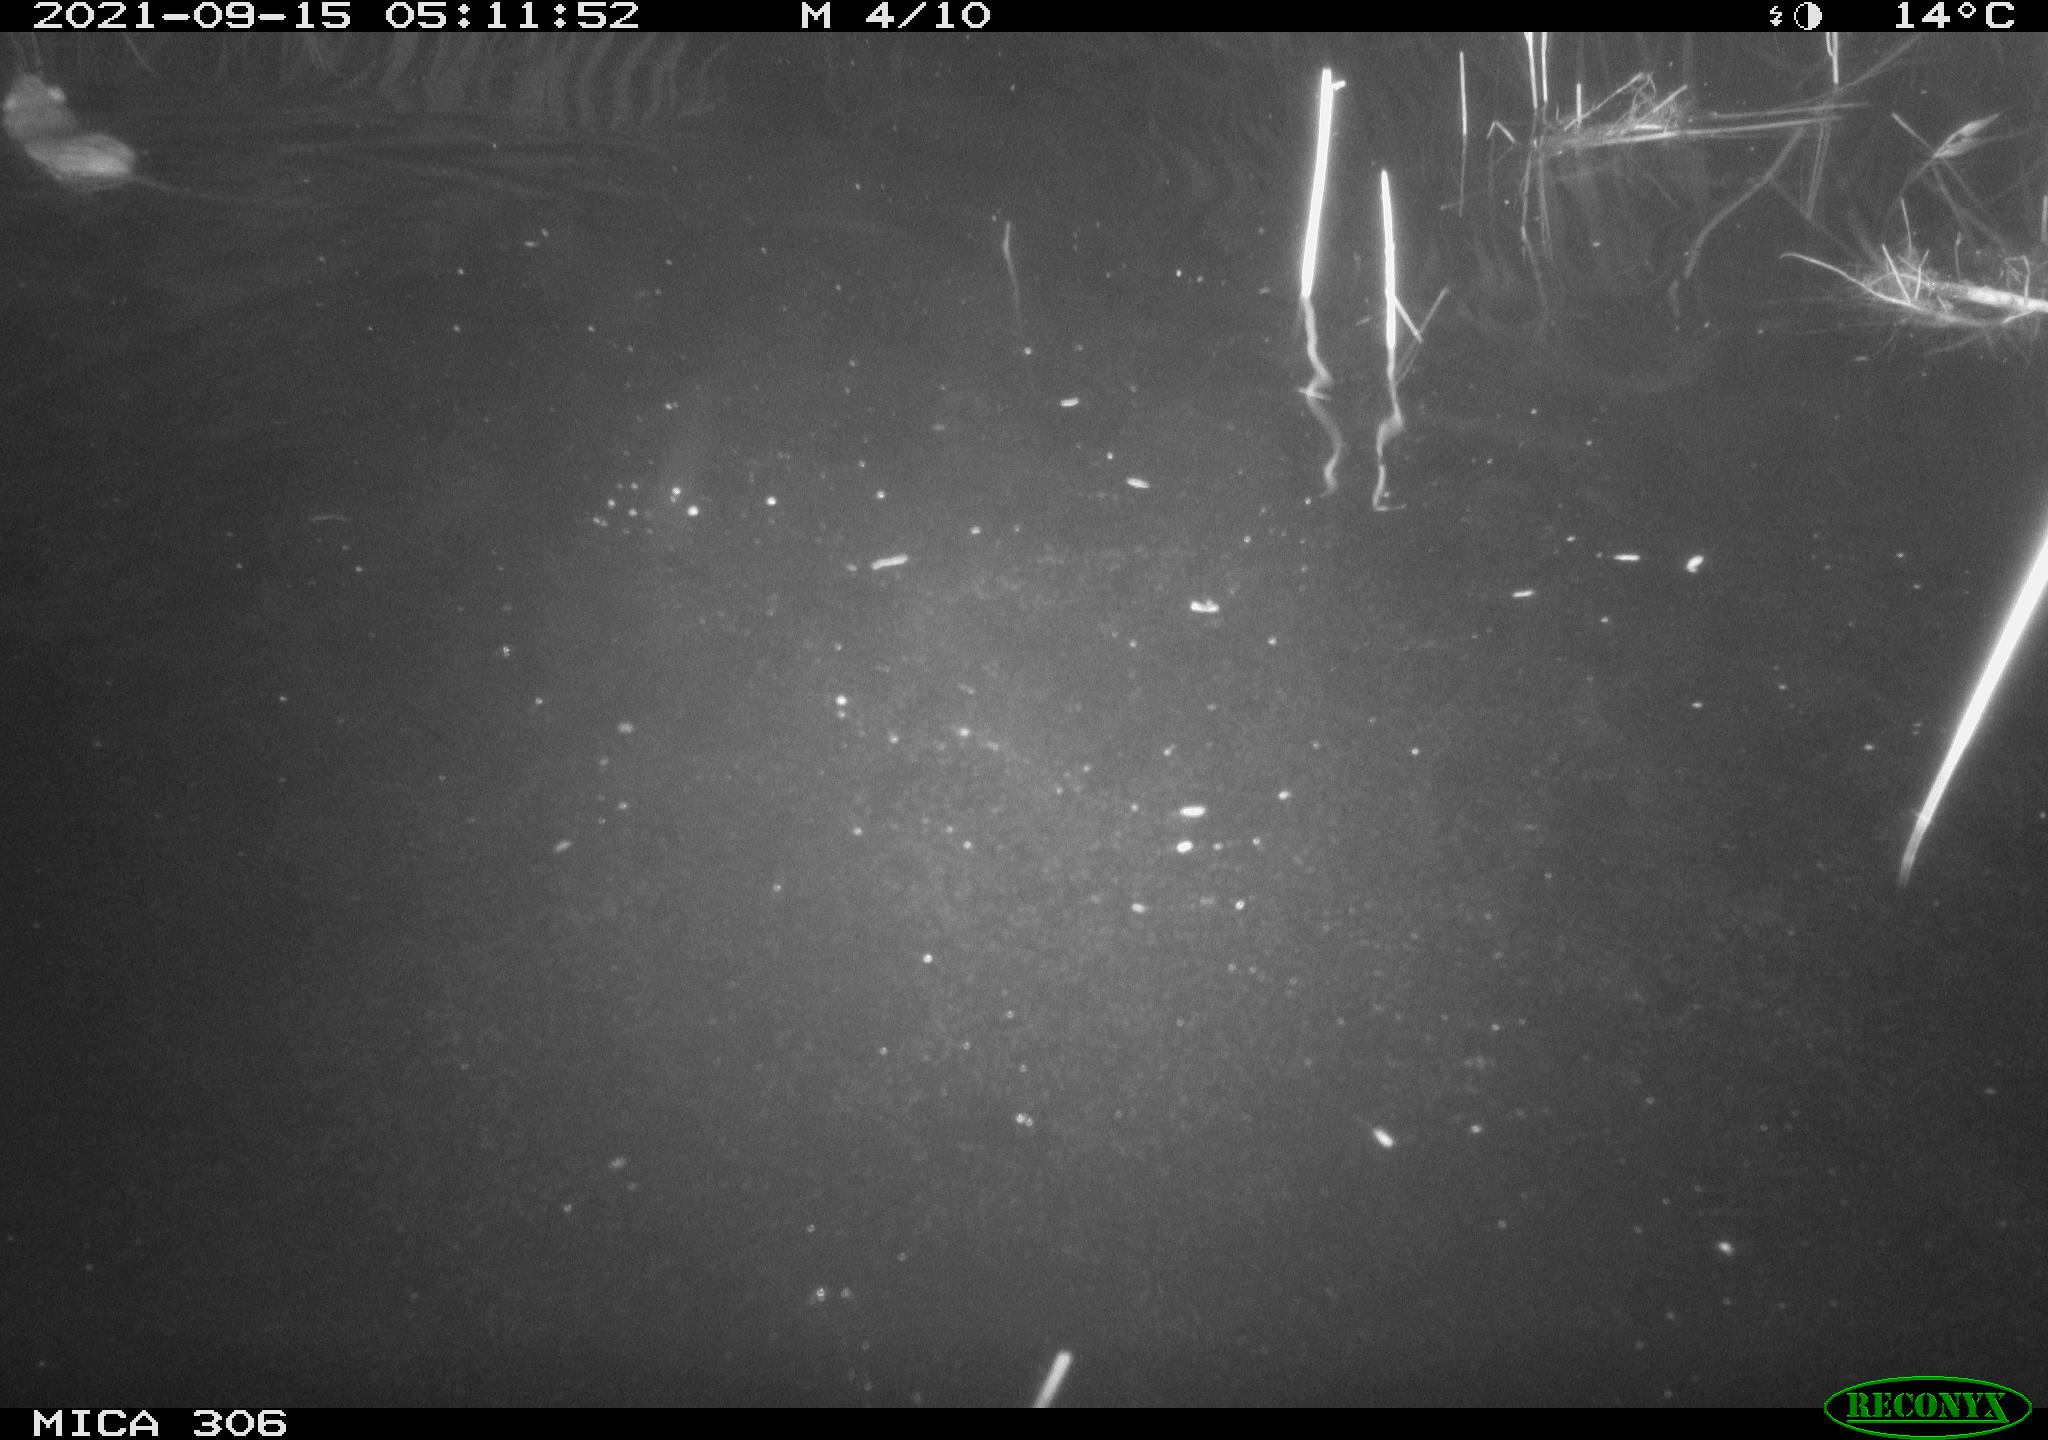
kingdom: Animalia
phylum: Chordata
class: Mammalia
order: Rodentia
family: Muridae
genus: Rattus
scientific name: Rattus norvegicus
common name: Brown rat
